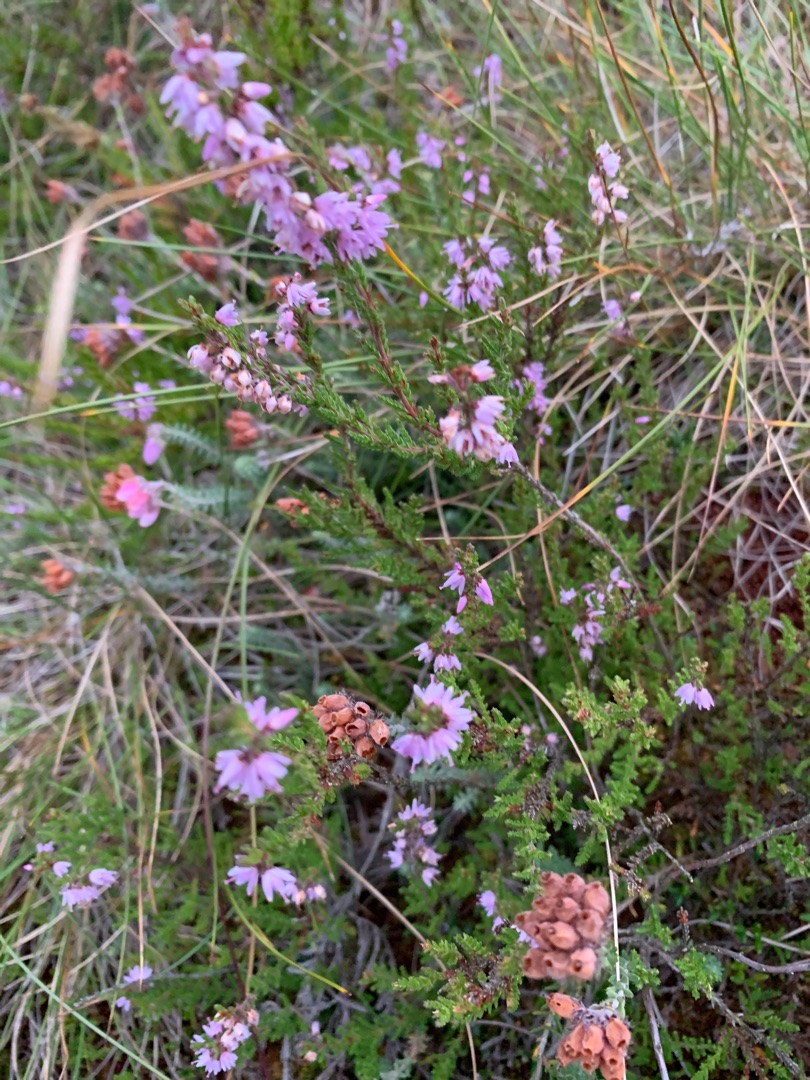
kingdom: Plantae
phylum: Tracheophyta
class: Magnoliopsida
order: Ericales
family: Ericaceae
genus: Calluna
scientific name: Calluna vulgaris
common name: Hedelyng
